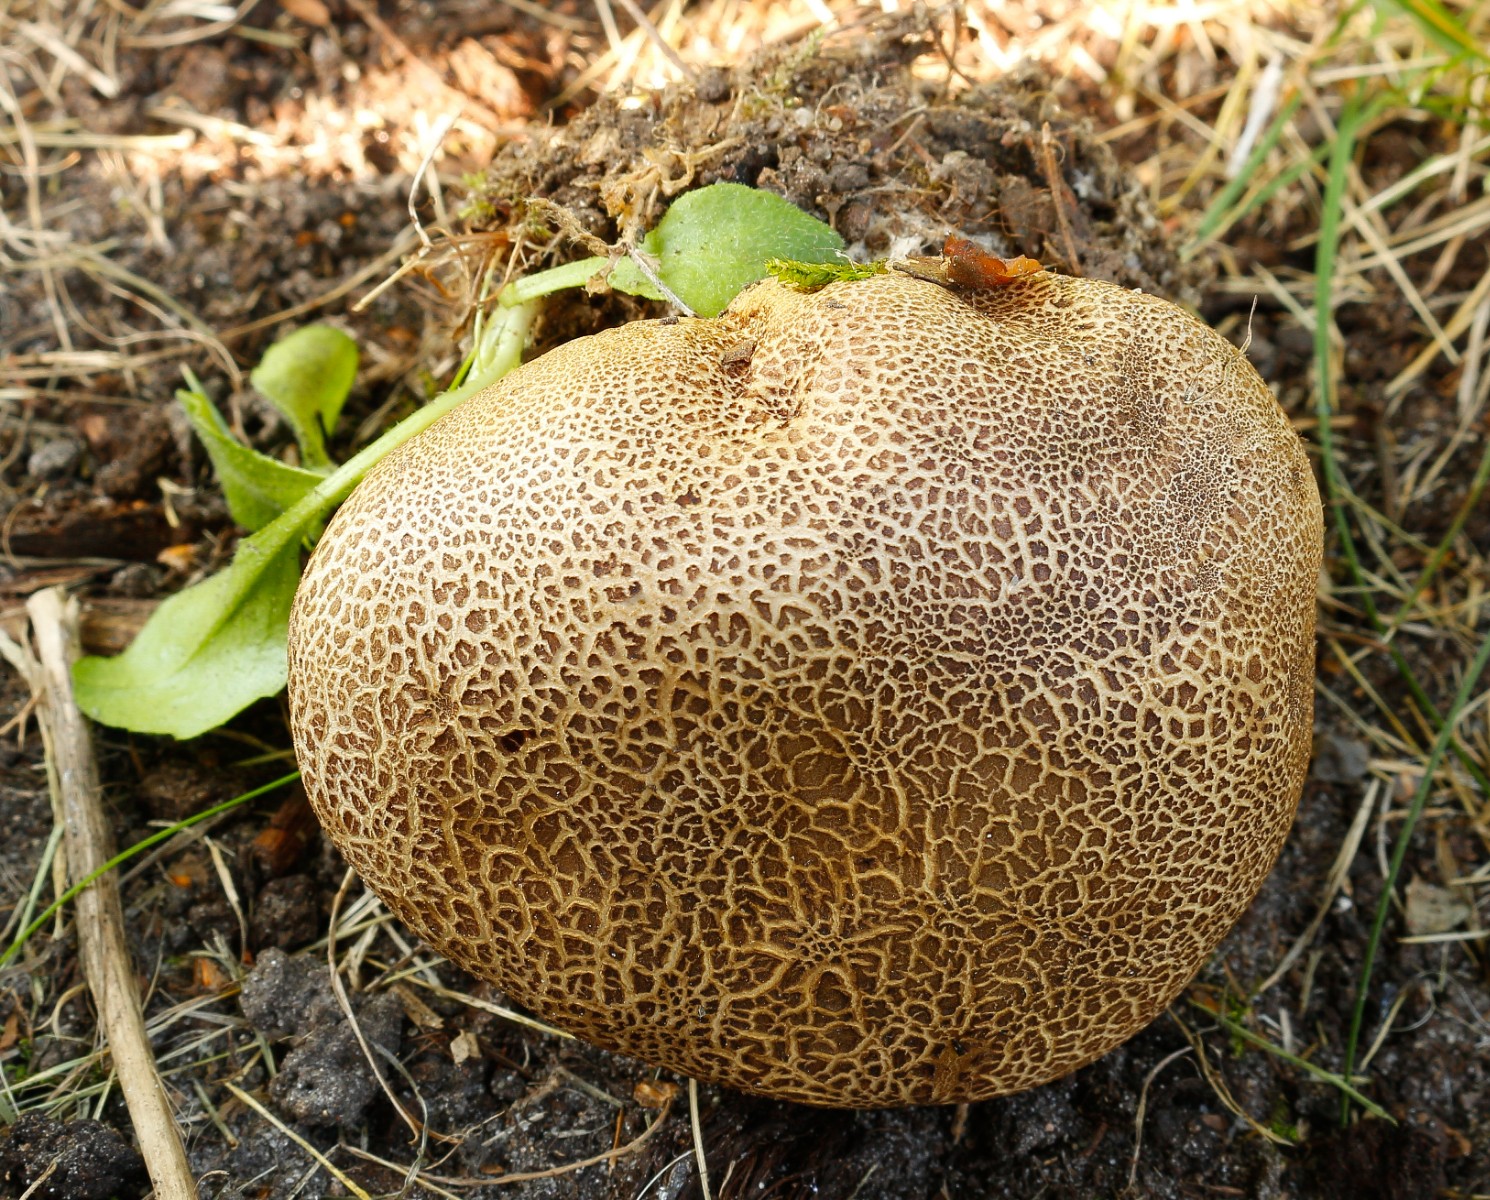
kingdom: Fungi
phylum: Basidiomycota
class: Agaricomycetes
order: Boletales
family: Sclerodermataceae
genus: Scleroderma
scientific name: Scleroderma citrinum
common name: almindelig bruskbold
